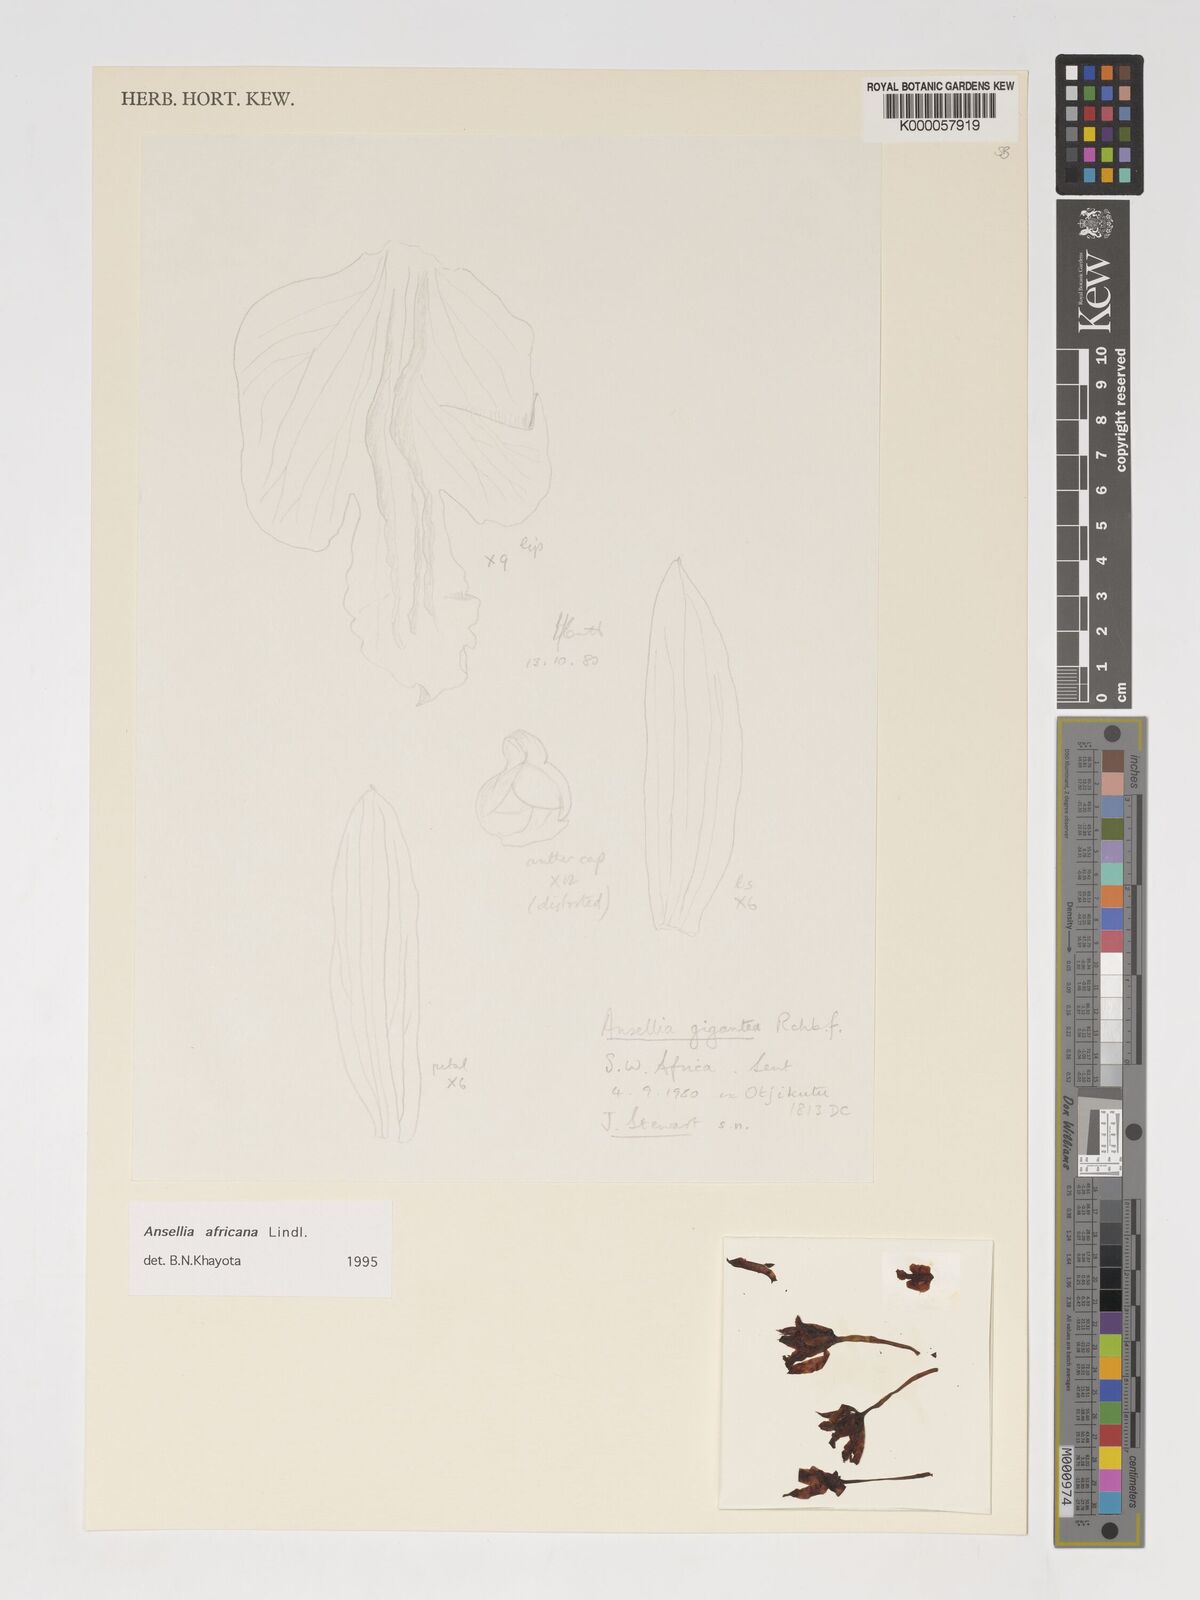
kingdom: Plantae
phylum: Tracheophyta
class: Liliopsida
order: Asparagales
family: Orchidaceae
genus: Ansellia
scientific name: Ansellia africana
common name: African ansellia
